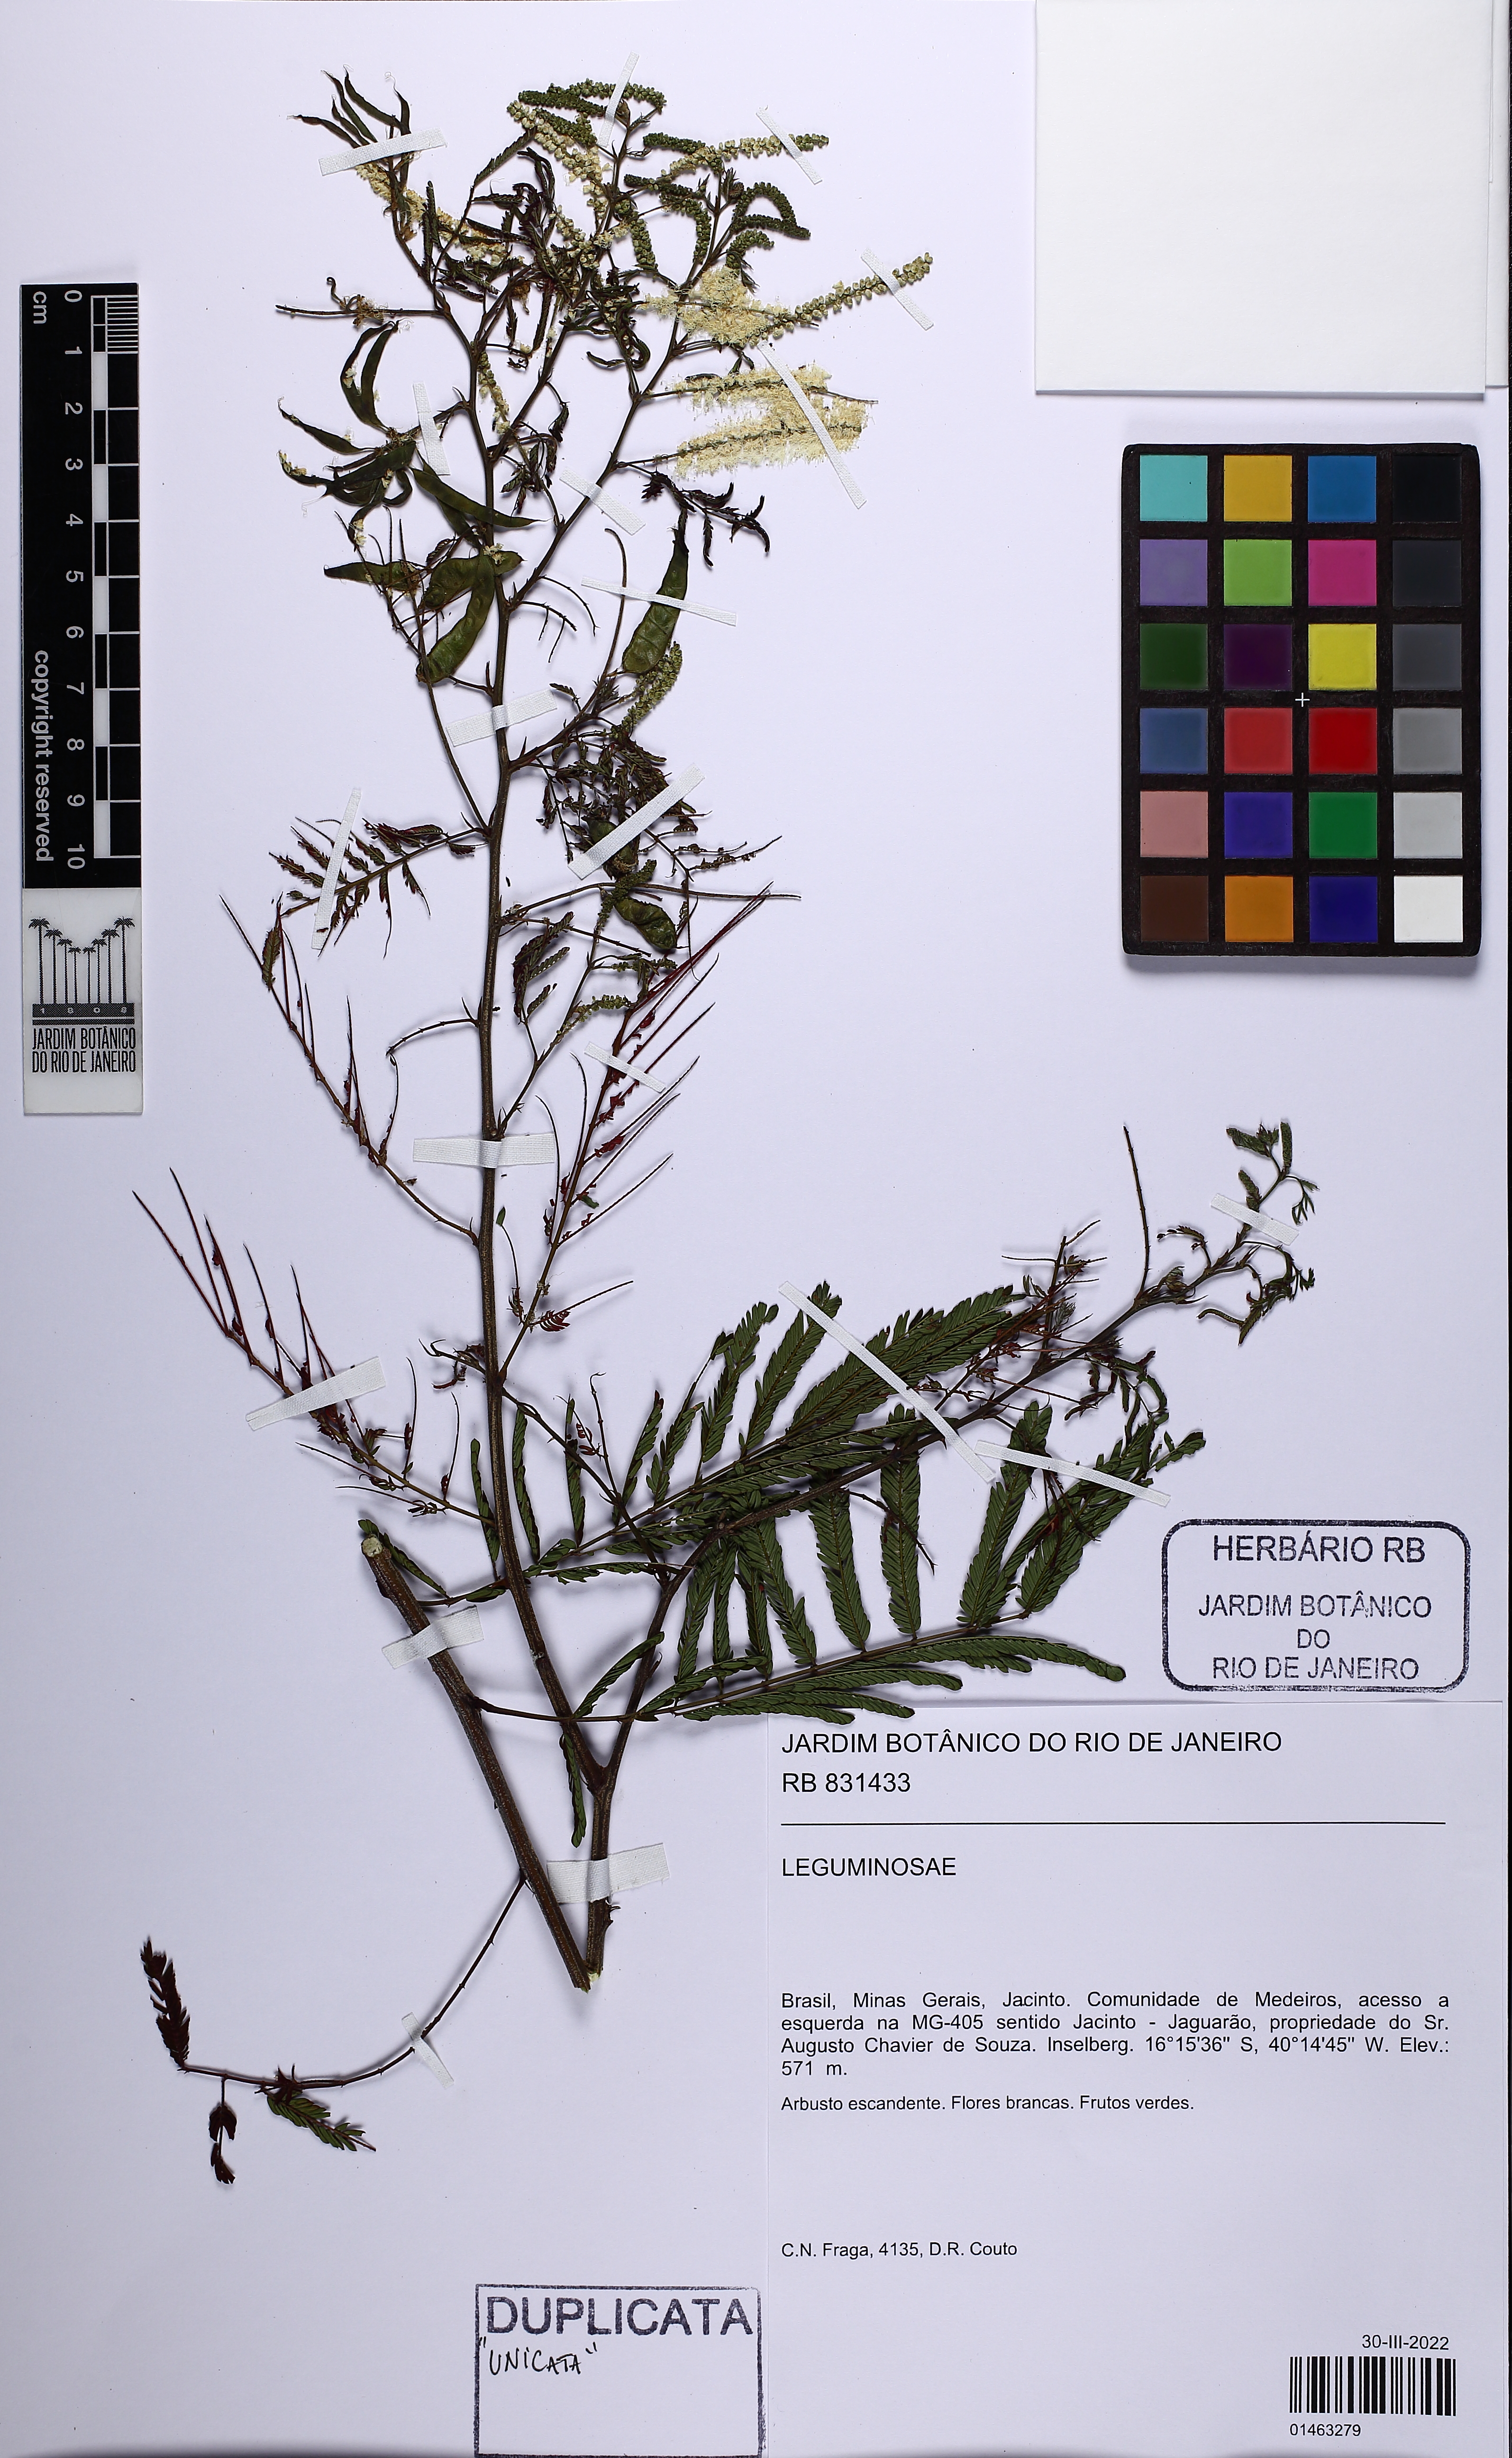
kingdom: Plantae
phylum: Tracheophyta
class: Magnoliopsida
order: Fabales
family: Fabaceae
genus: Mimosa
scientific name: Mimosa
